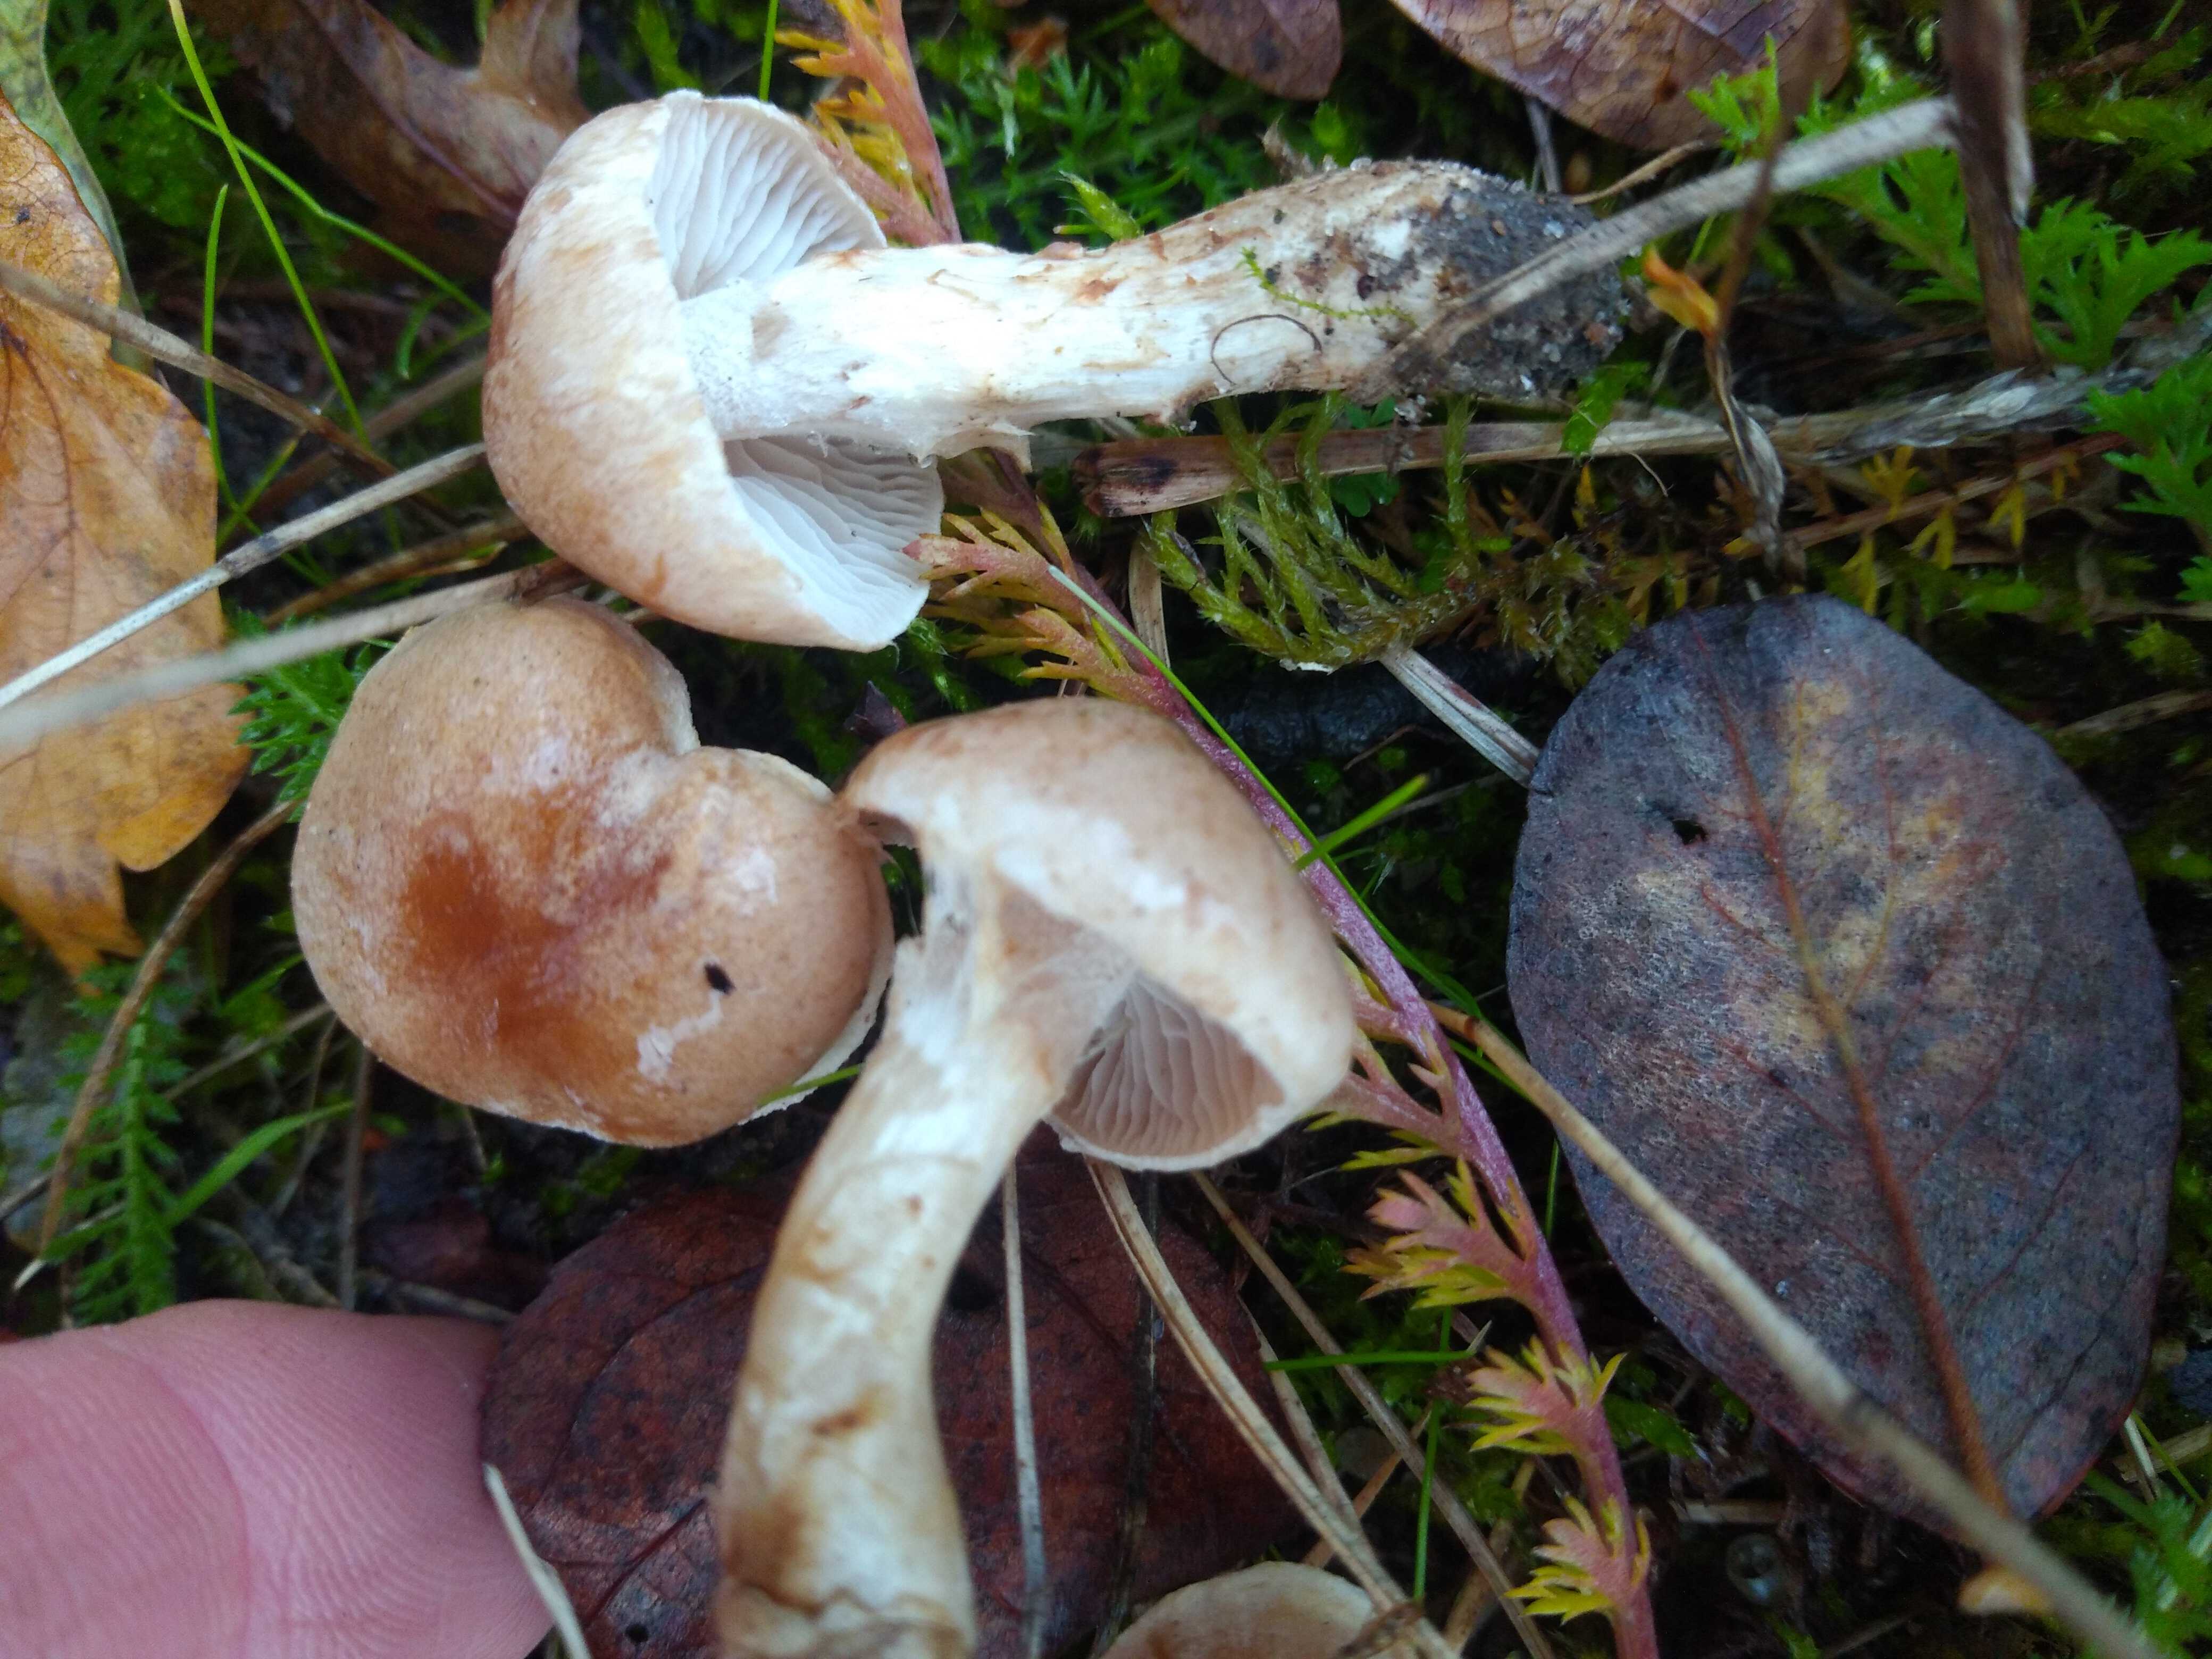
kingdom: Fungi
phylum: Basidiomycota
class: Agaricomycetes
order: Agaricales
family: Hymenogastraceae
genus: Hebeloma
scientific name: Hebeloma
